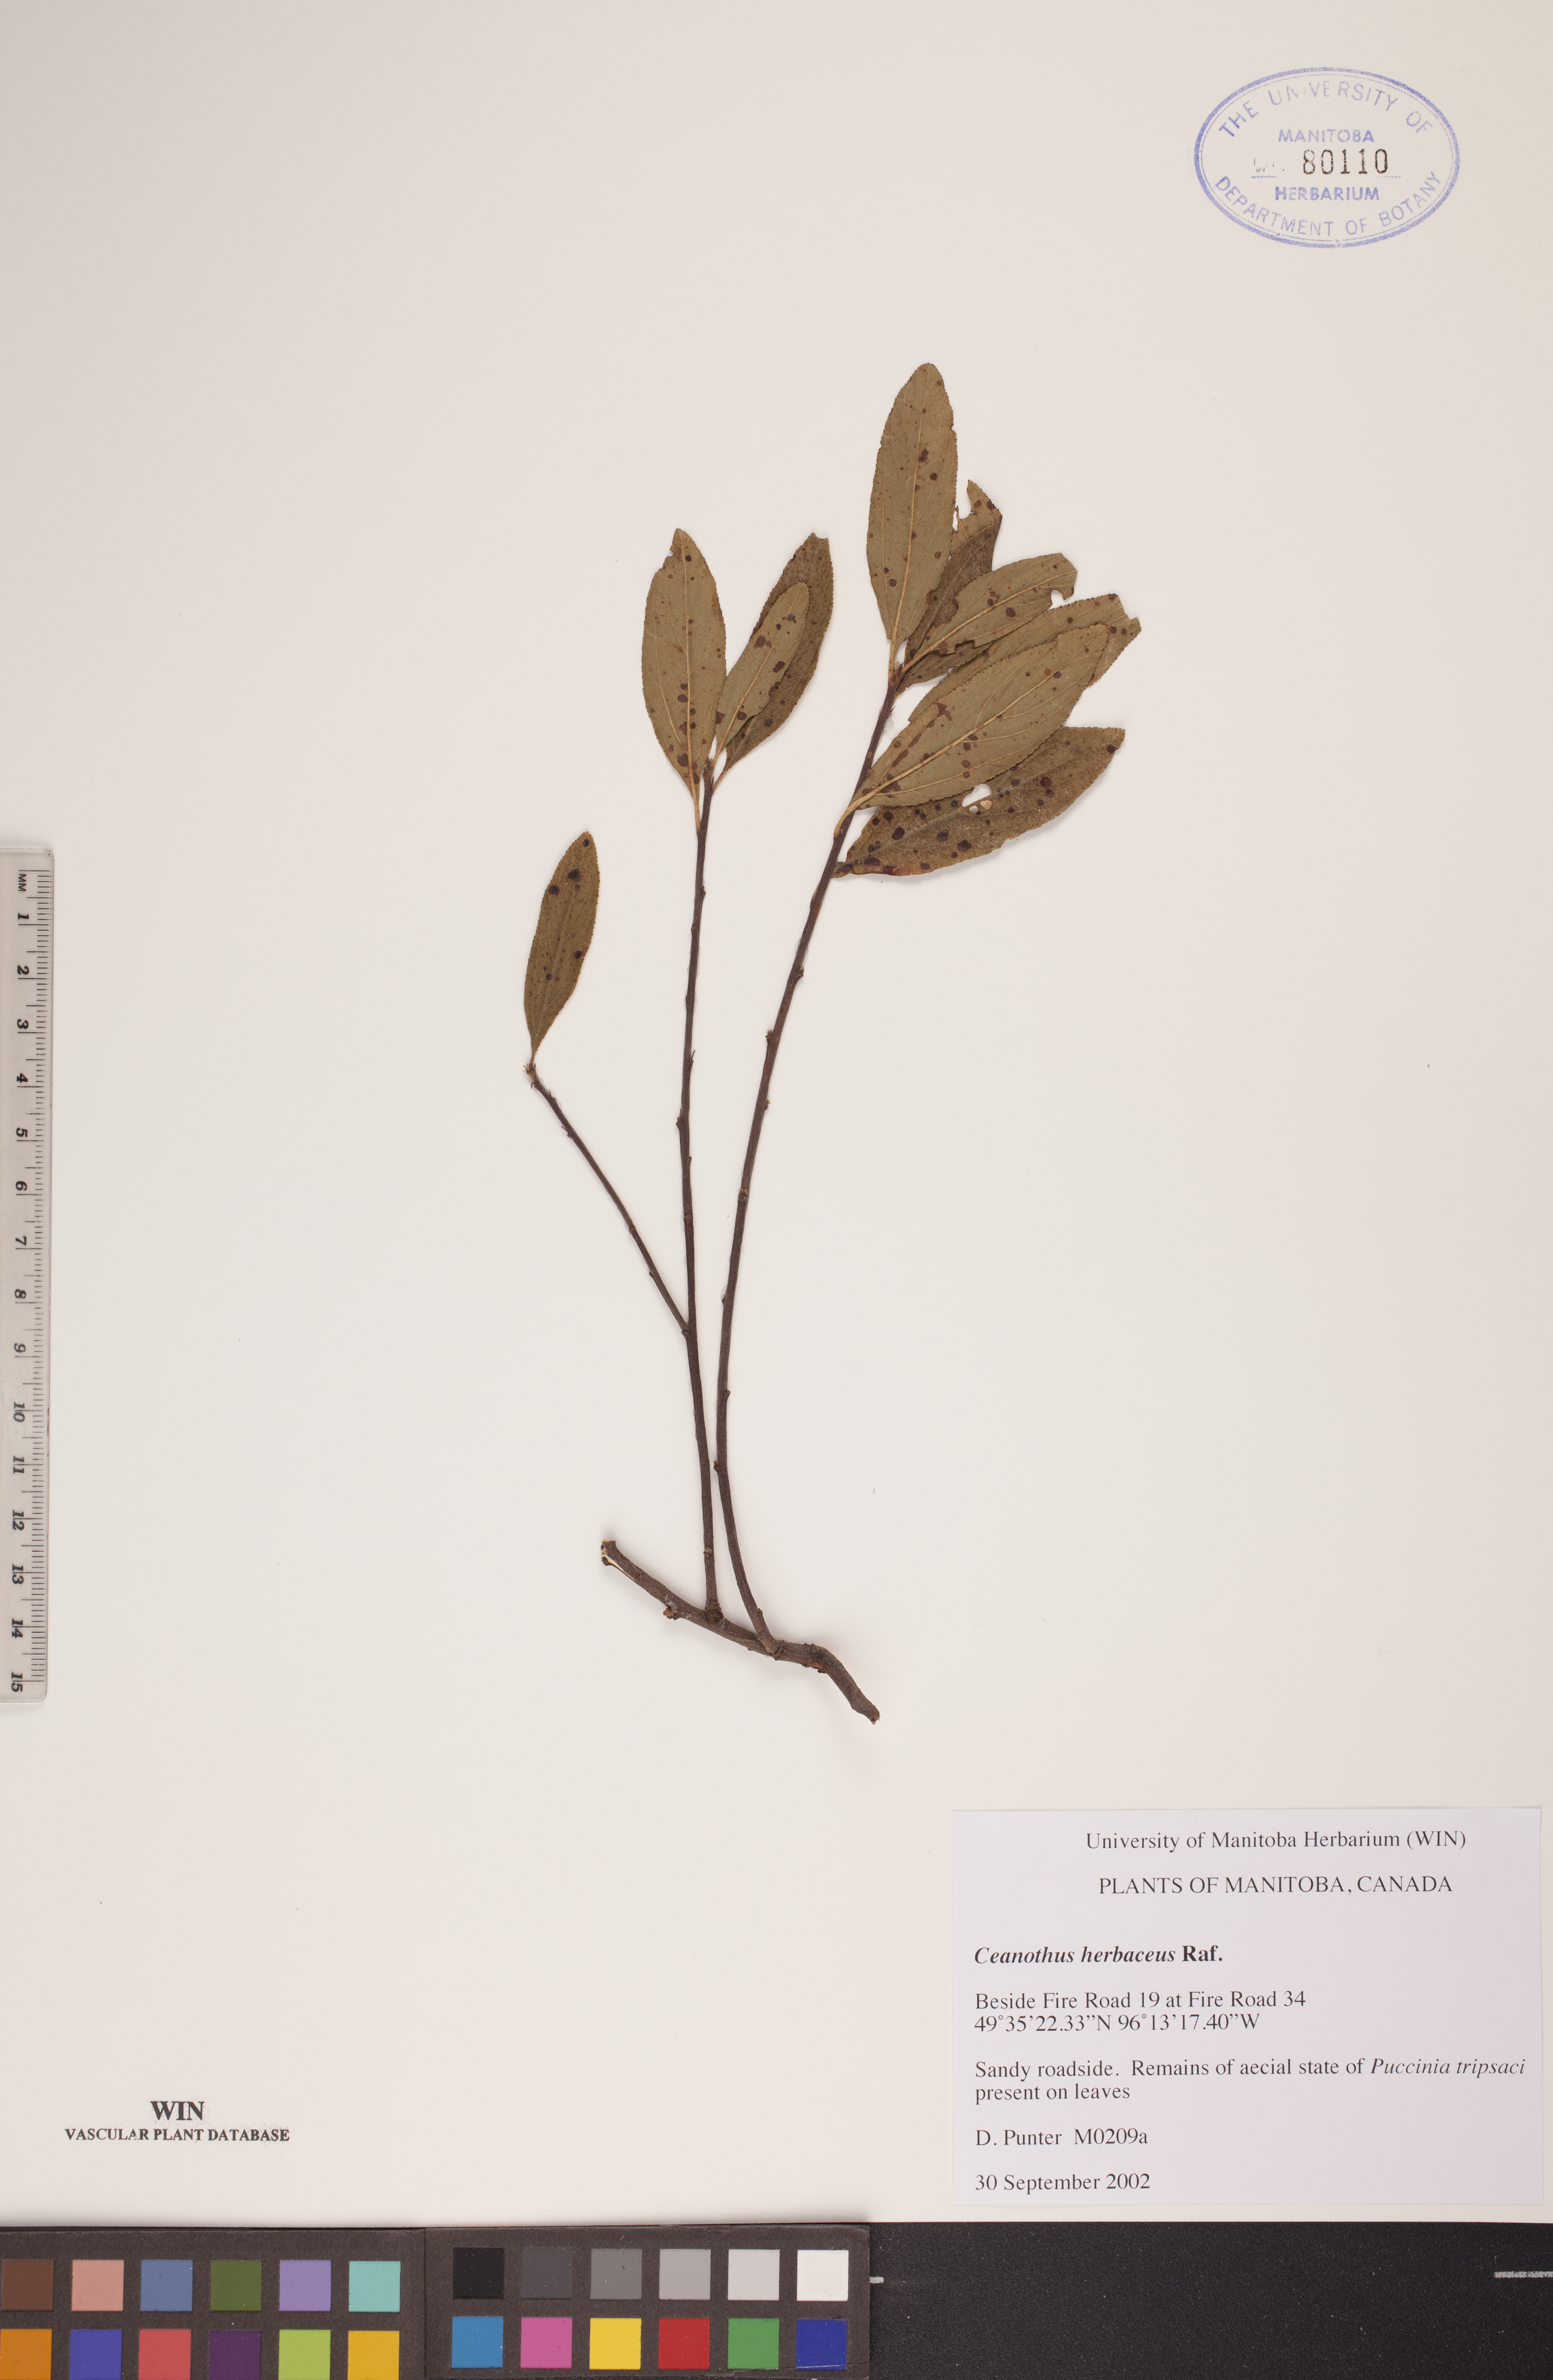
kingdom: Plantae
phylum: Tracheophyta
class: Magnoliopsida
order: Rosales
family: Rhamnaceae
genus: Ceanothus
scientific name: Ceanothus herbaceus
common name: Inland ceanothus
